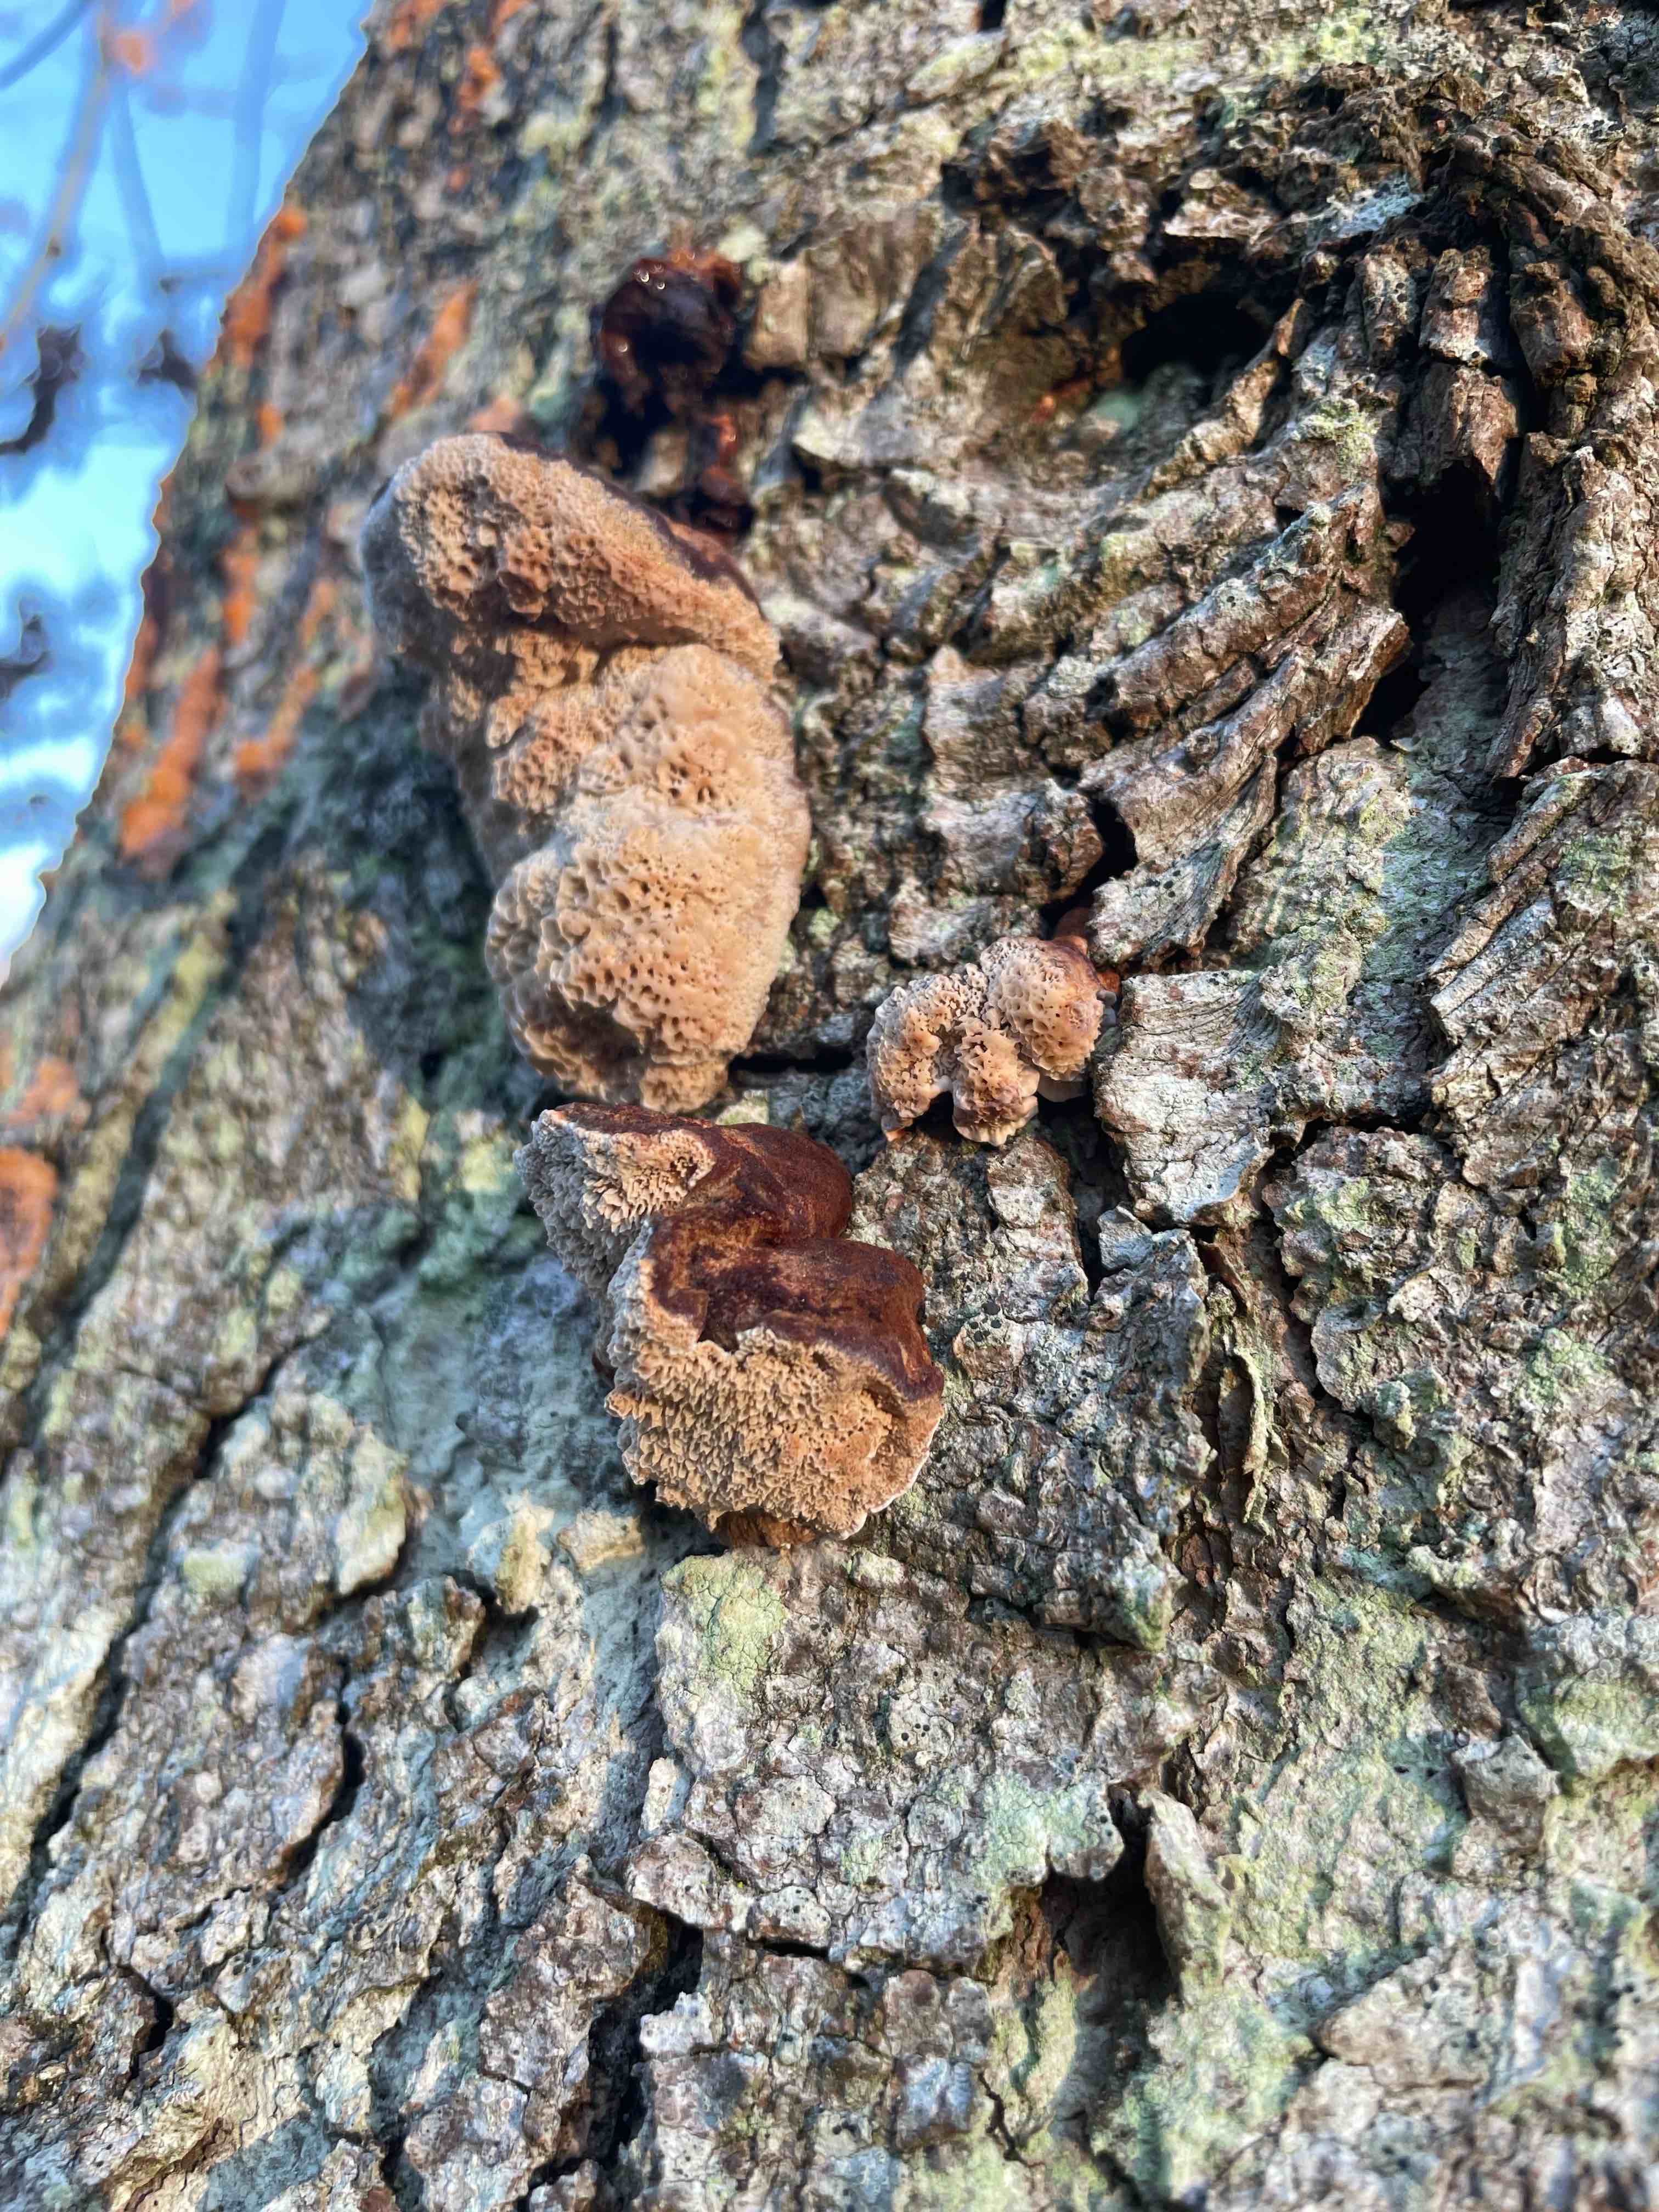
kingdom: Fungi
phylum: Basidiomycota
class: Agaricomycetes
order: Polyporales
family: Ischnodermataceae
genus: Ischnoderma
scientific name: Ischnoderma benzoinum
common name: gran-tjæreporesvamp
